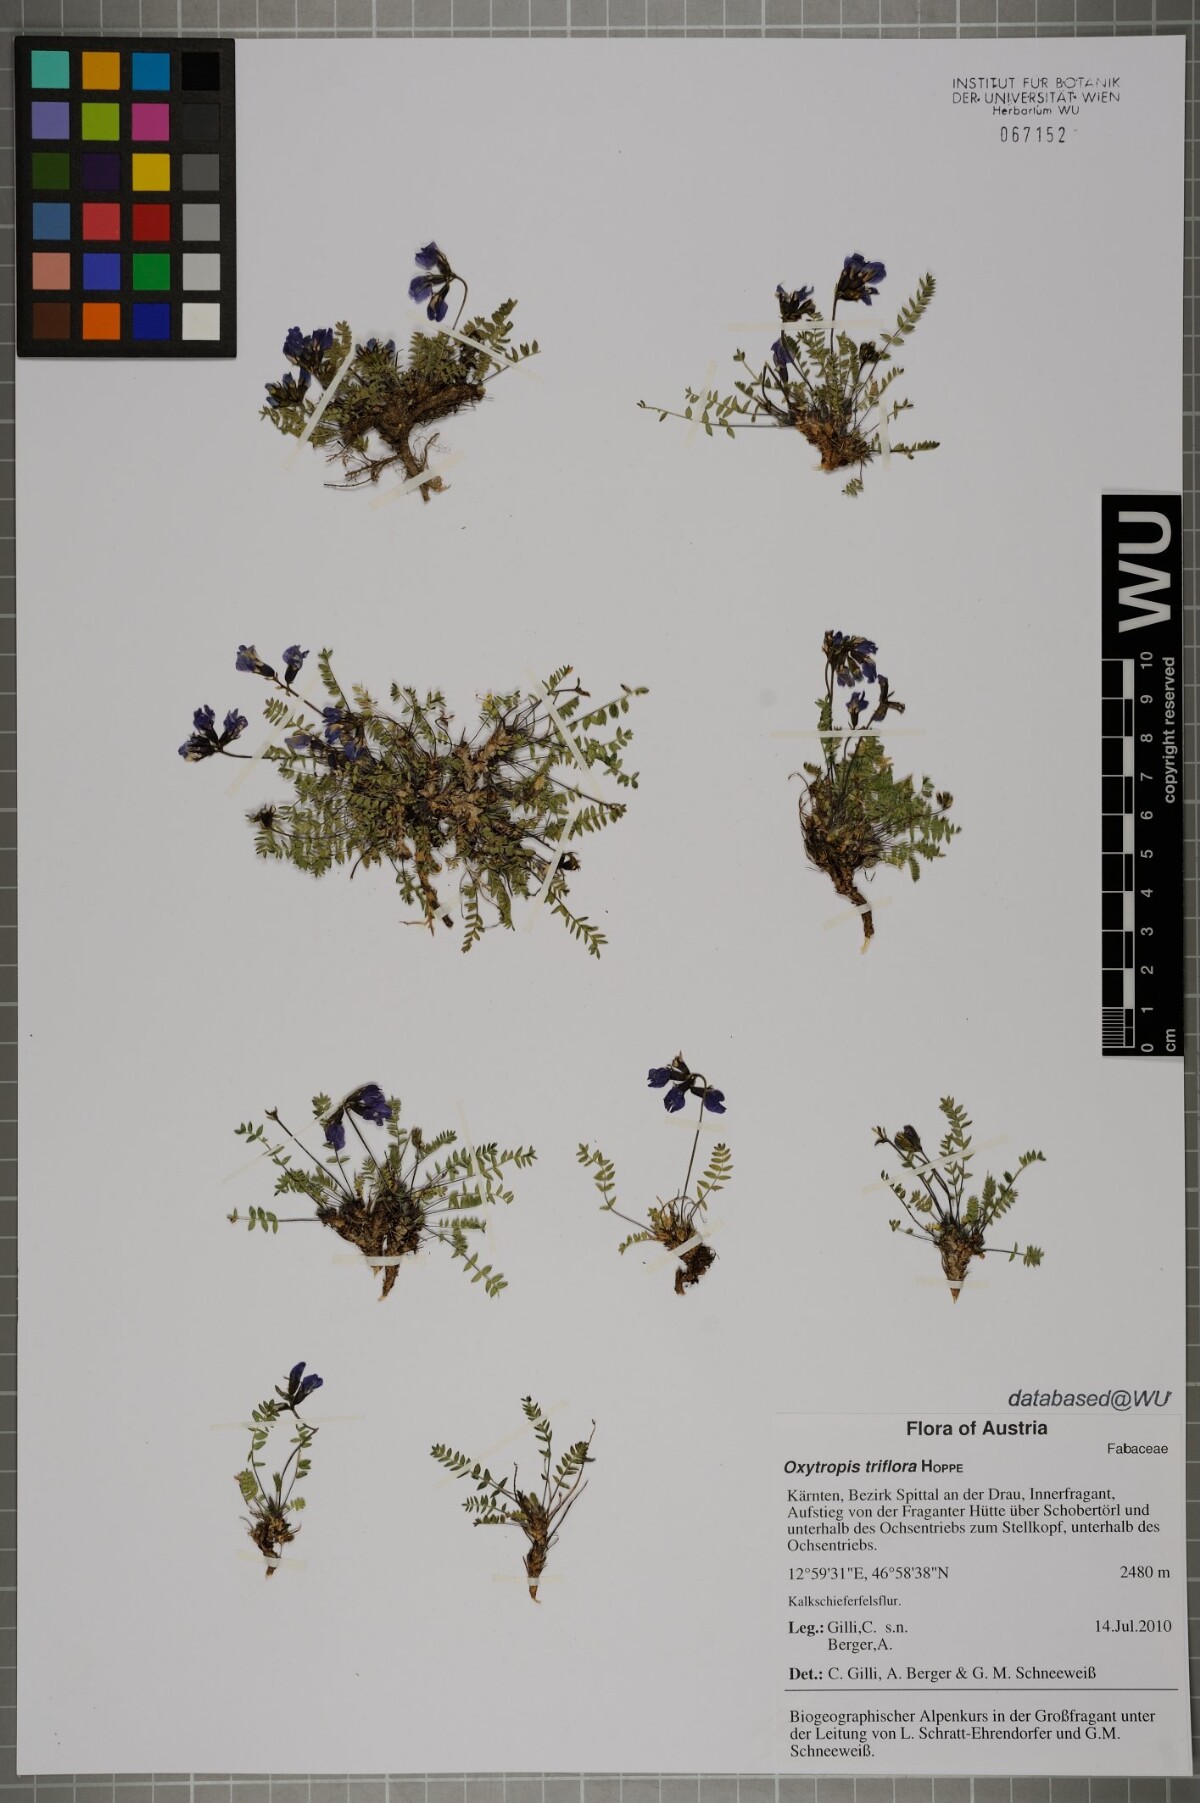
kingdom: Plantae
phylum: Tracheophyta
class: Magnoliopsida
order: Fabales
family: Fabaceae
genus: Oxytropis
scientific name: Oxytropis triflora
